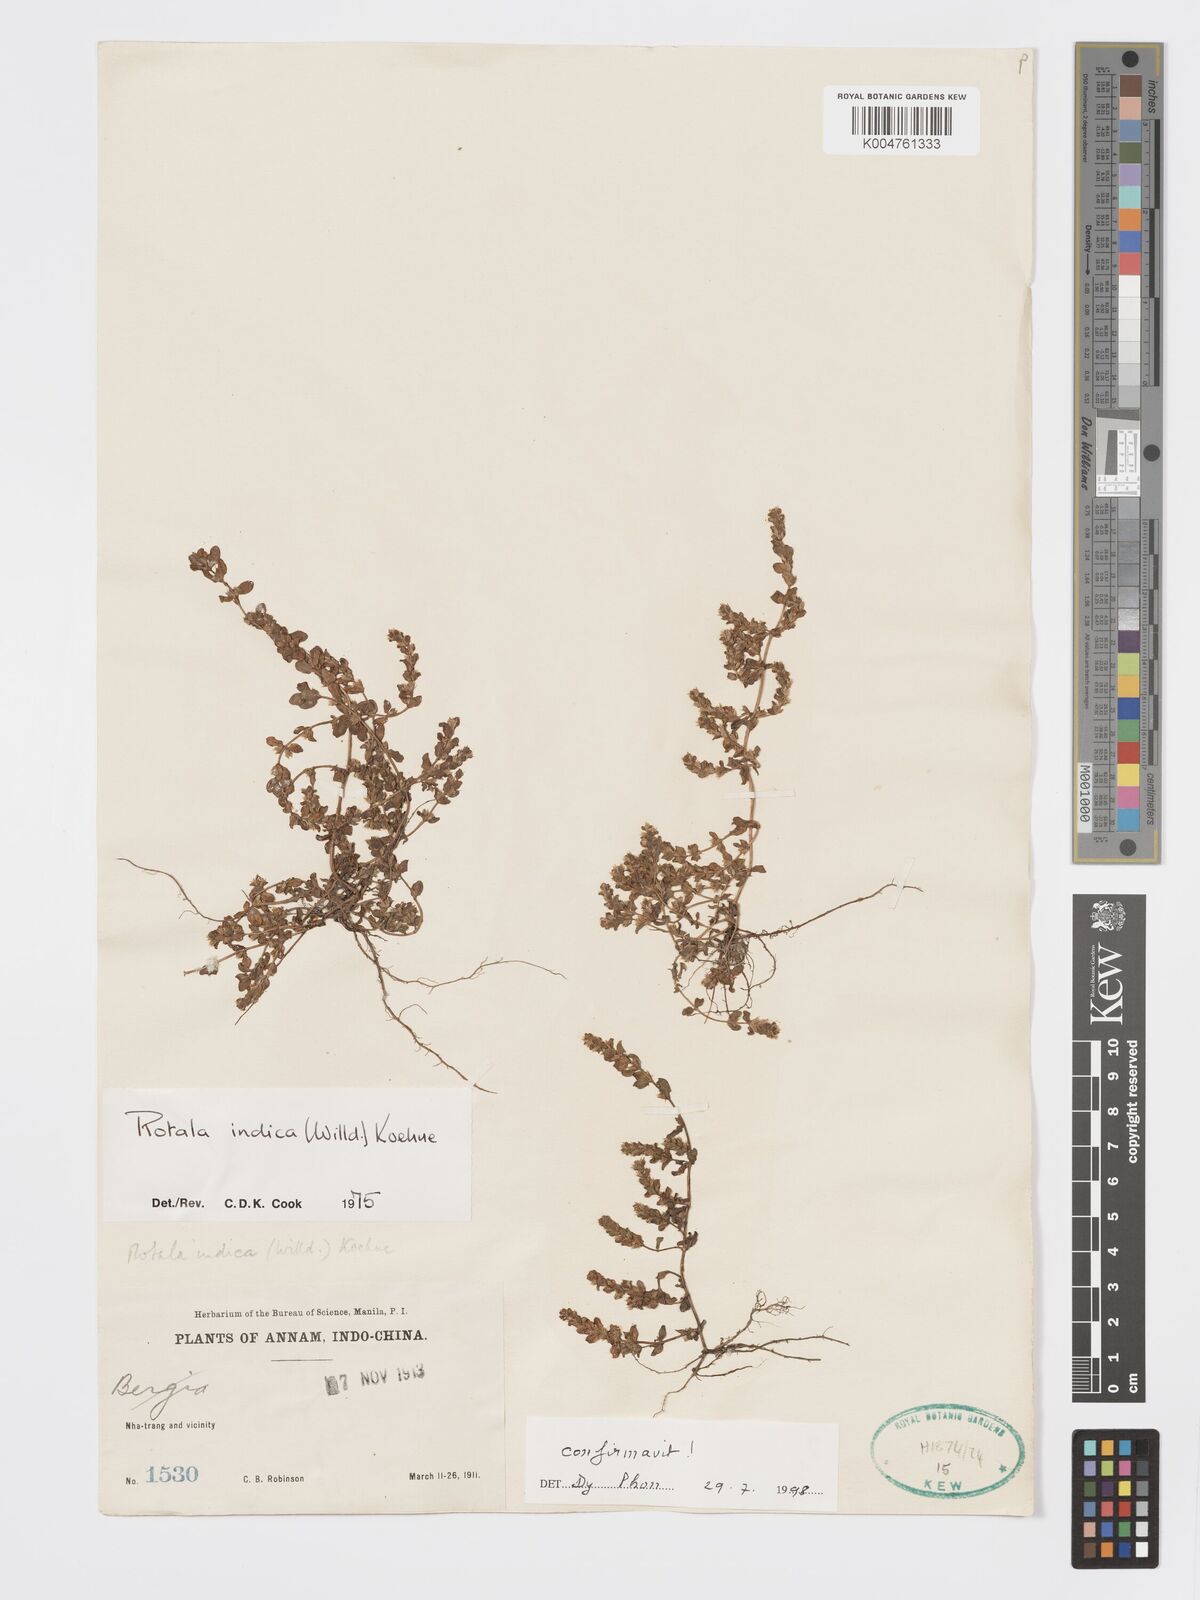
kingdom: Plantae
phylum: Tracheophyta
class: Magnoliopsida
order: Myrtales
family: Lythraceae
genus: Rotala
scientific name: Rotala indica
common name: Indian toothcup
